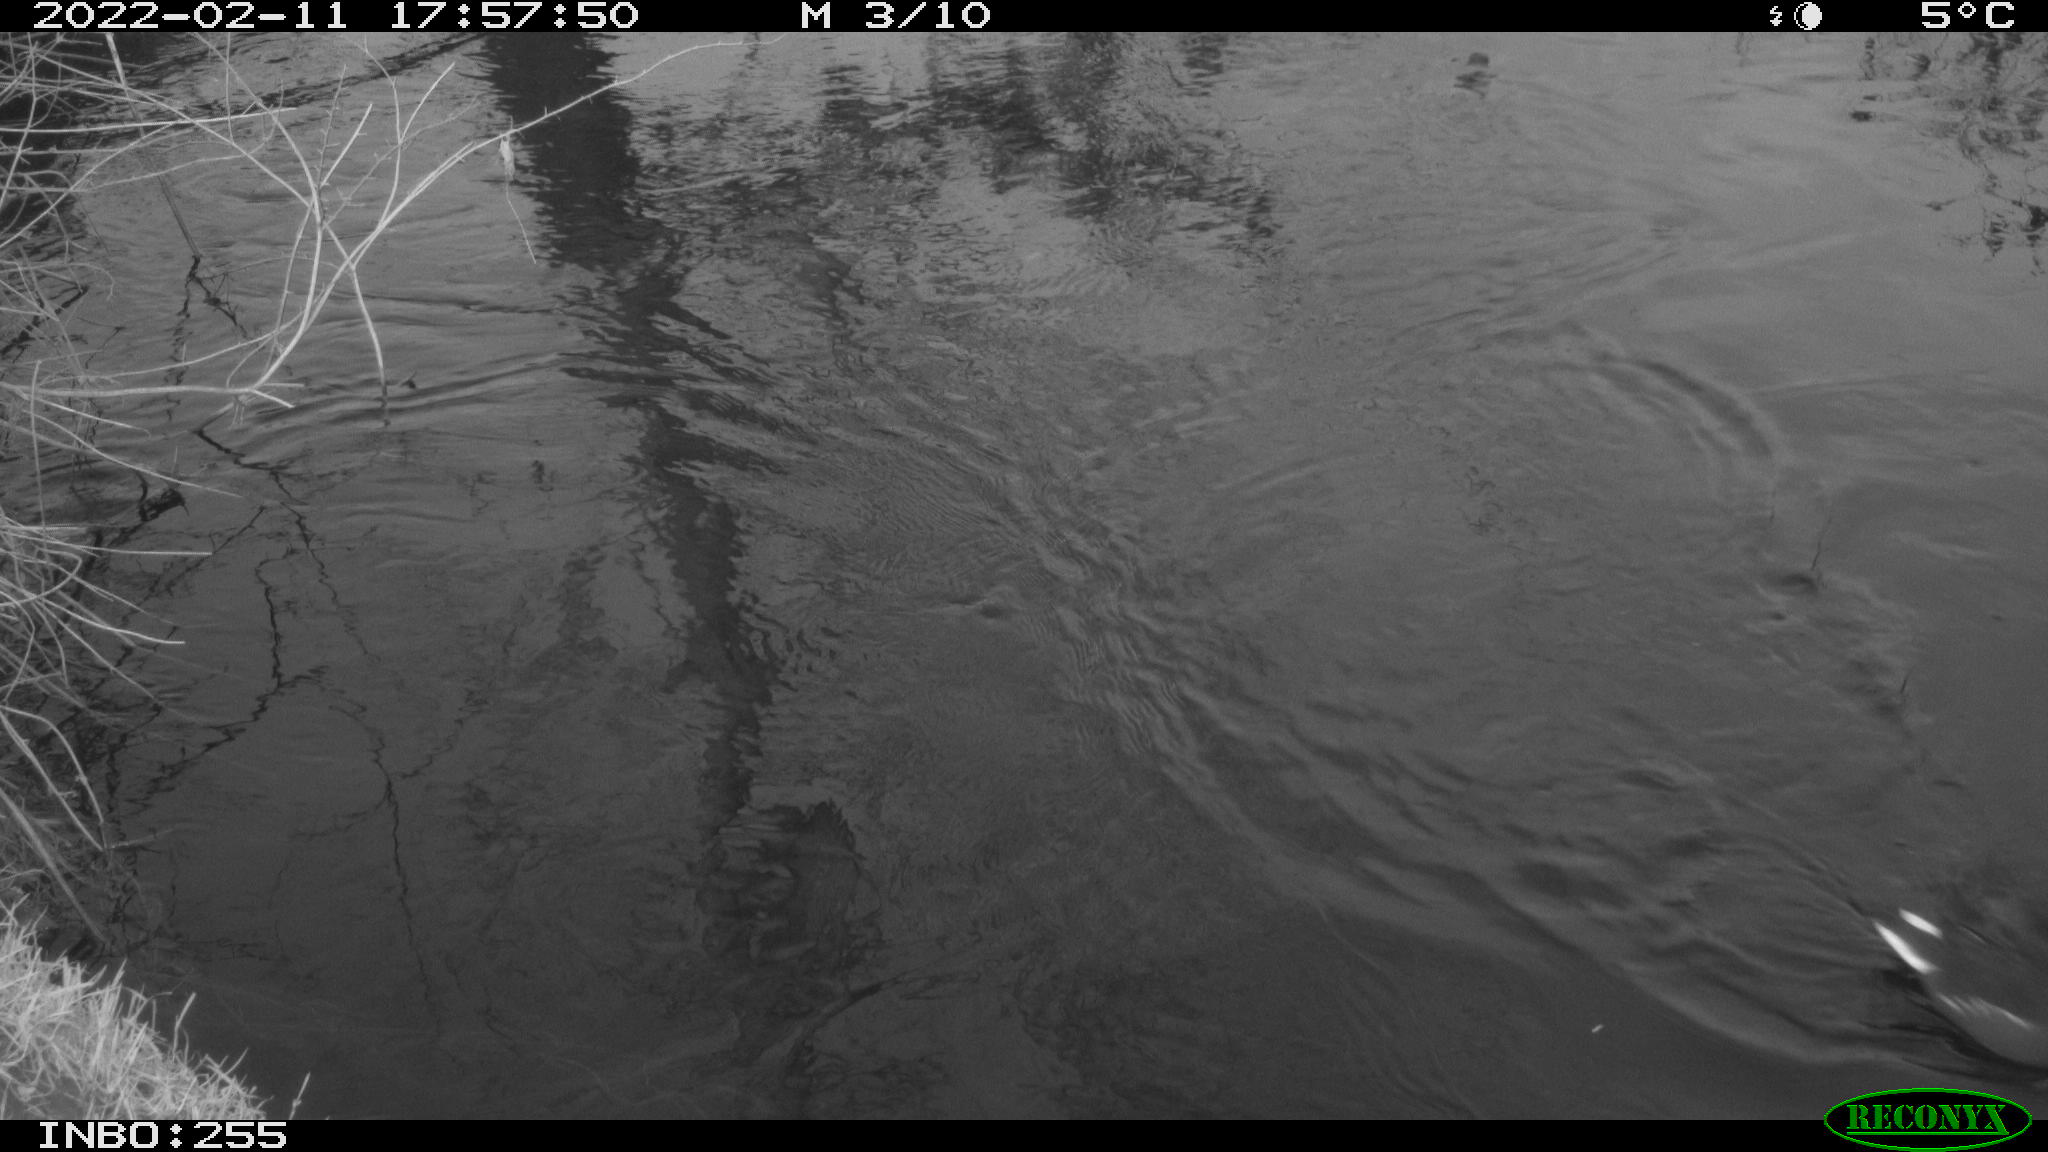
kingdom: Animalia
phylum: Chordata
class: Aves
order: Gruiformes
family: Rallidae
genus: Gallinula
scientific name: Gallinula chloropus
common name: Common moorhen
